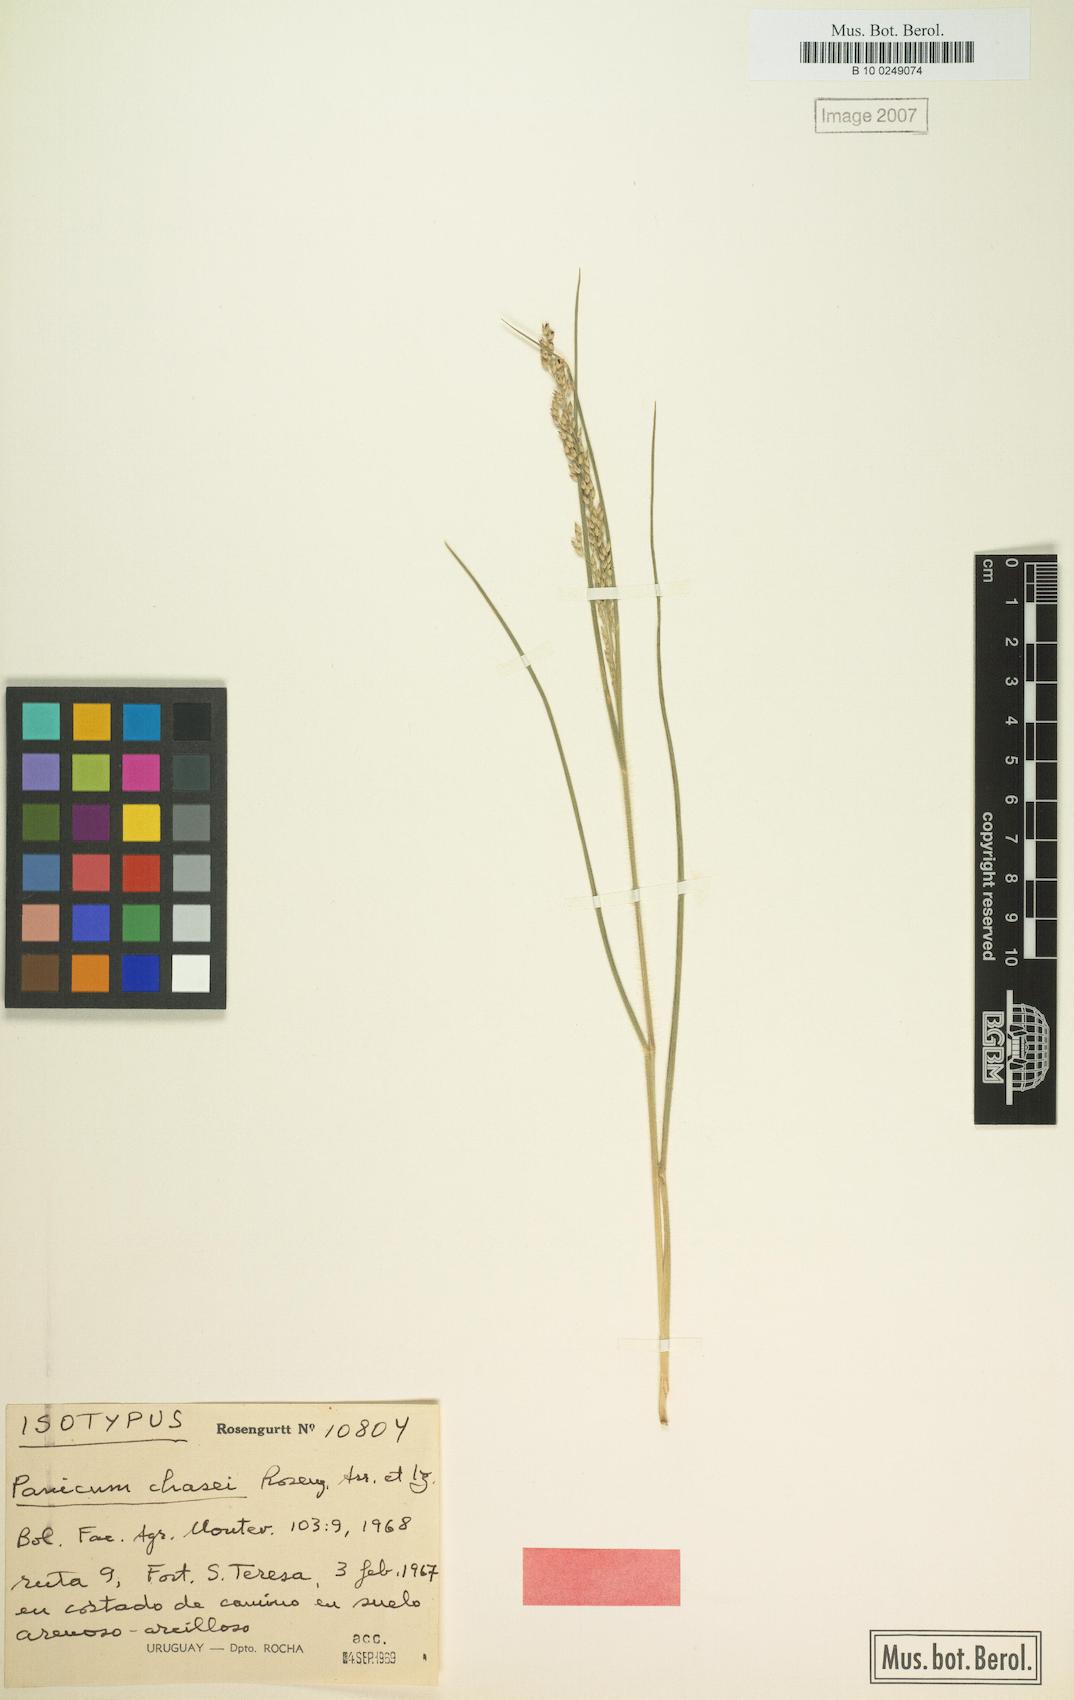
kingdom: Plantae
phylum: Tracheophyta
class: Liliopsida
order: Poales
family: Poaceae
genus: Panicum
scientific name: Panicum chasei
